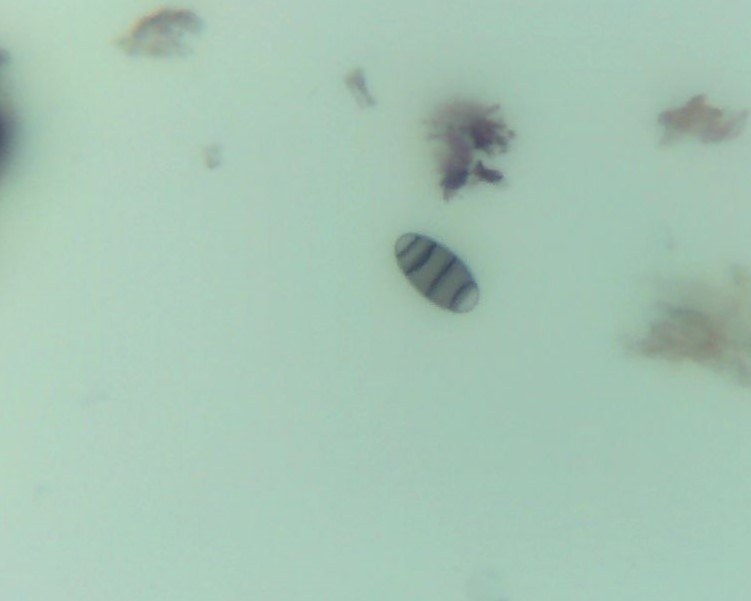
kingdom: Fungi
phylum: Ascomycota
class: Sordariomycetes
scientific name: Sordariomycetes
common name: kernesvampklassen
